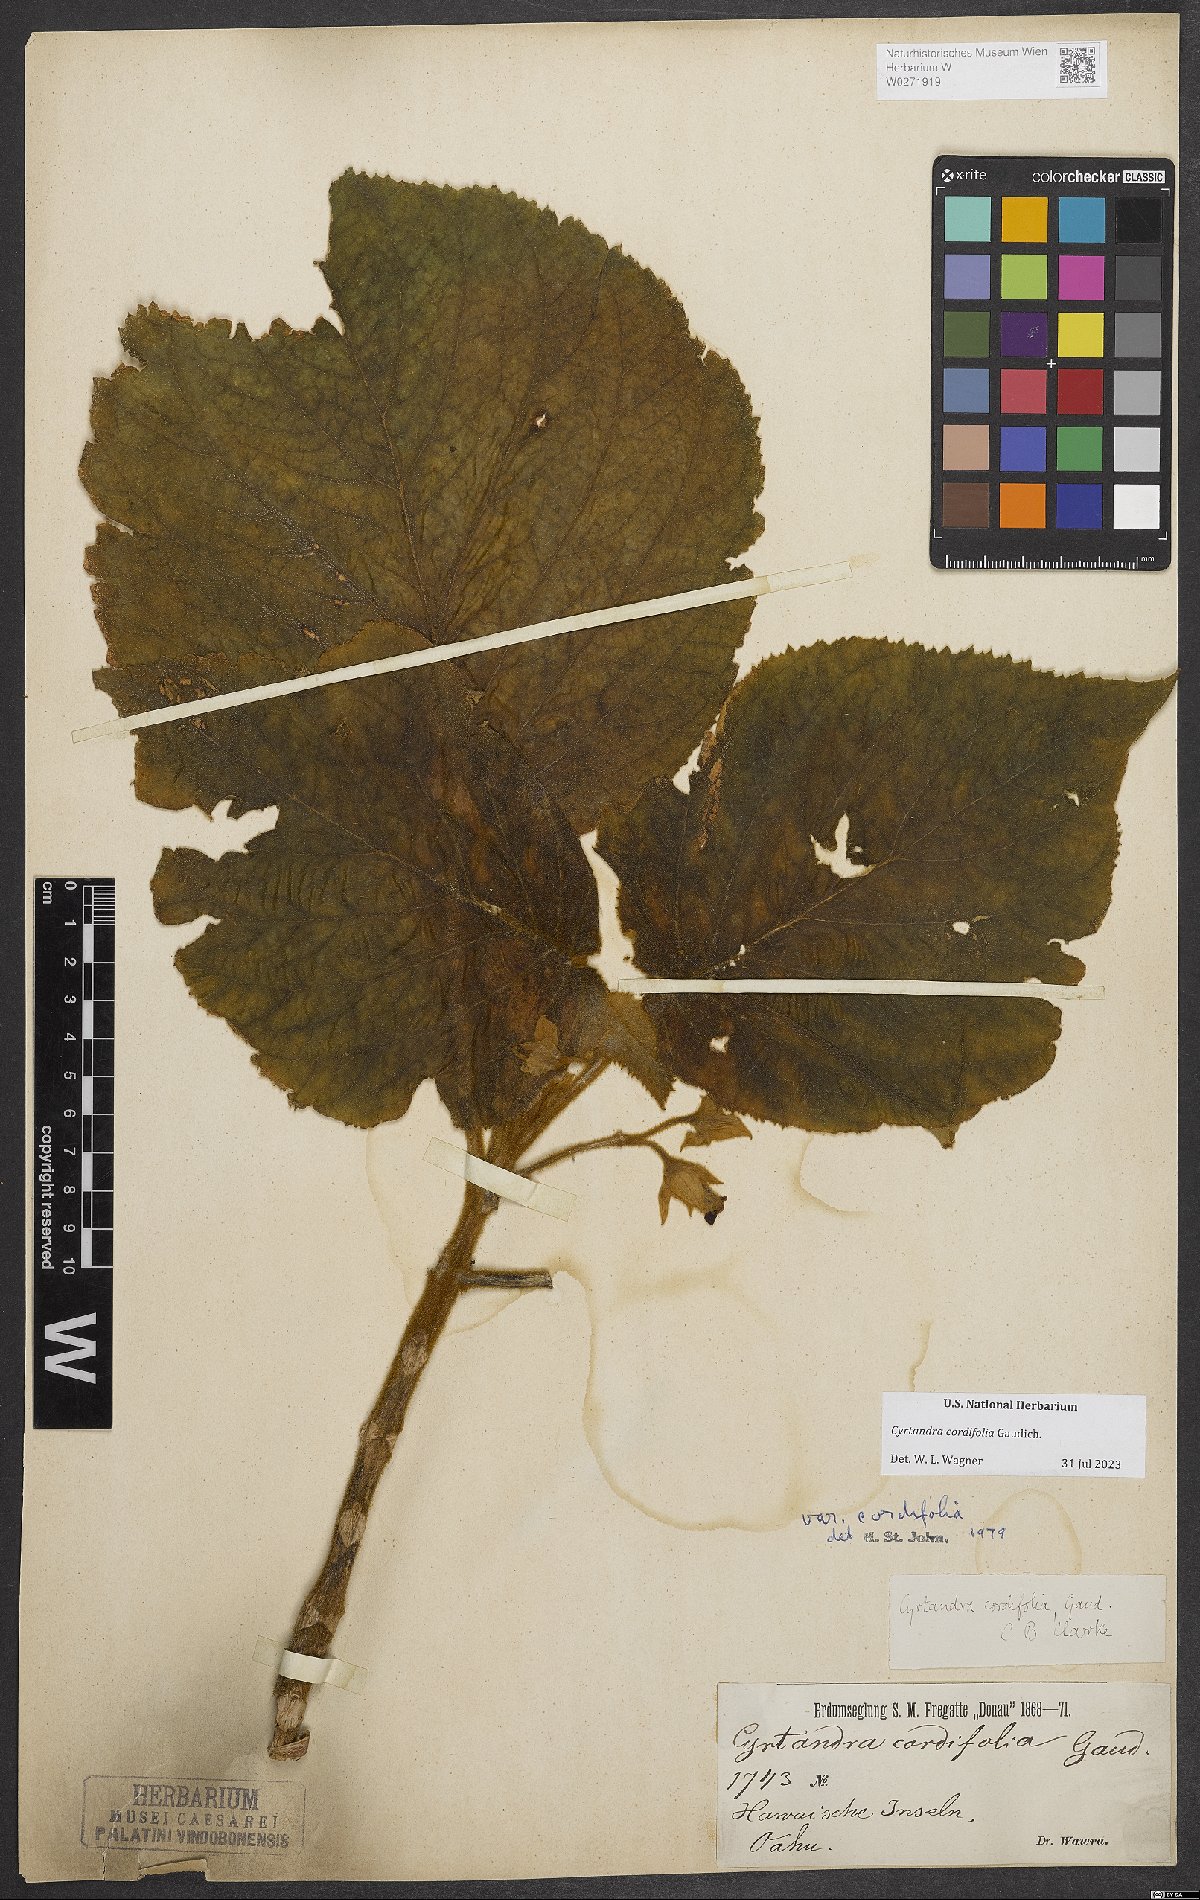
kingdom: Plantae
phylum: Tracheophyta
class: Magnoliopsida
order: Lamiales
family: Gesneriaceae
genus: Cyrtandra
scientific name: Cyrtandra cordifolia
